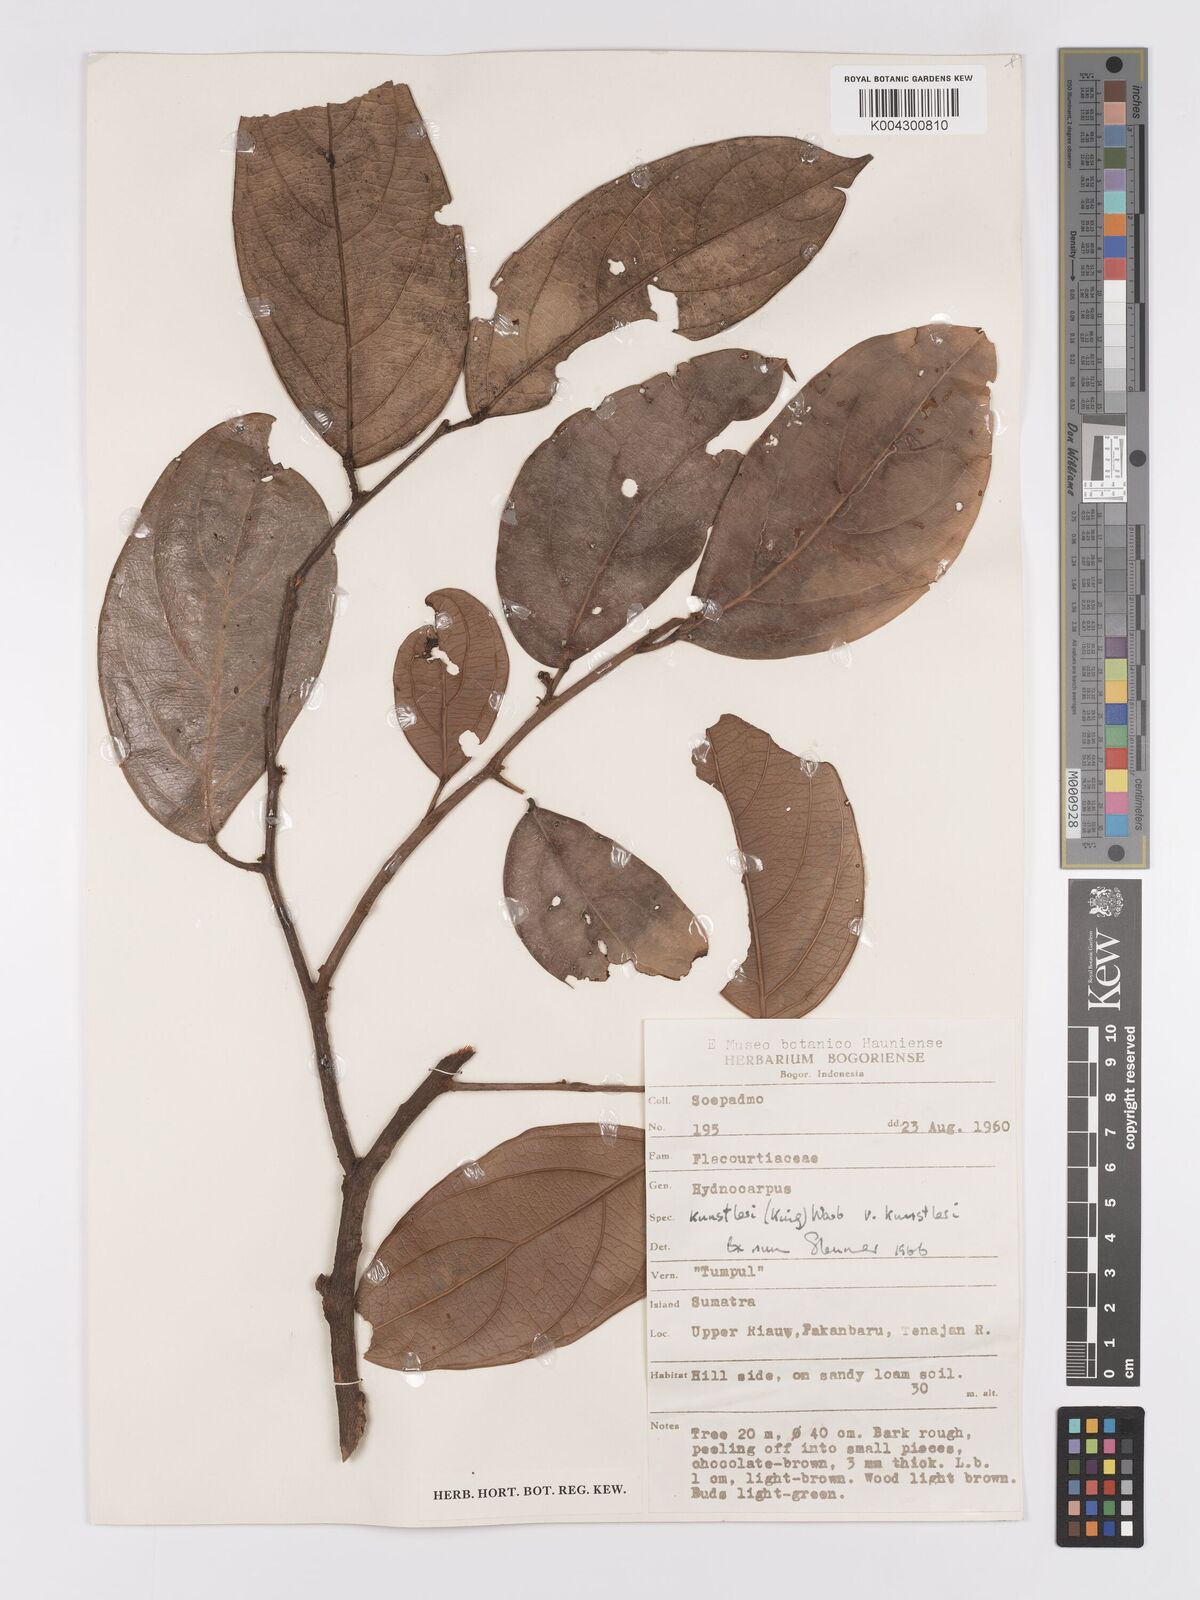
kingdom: Plantae
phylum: Tracheophyta
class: Magnoliopsida
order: Malpighiales
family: Achariaceae
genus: Hydnocarpus
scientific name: Hydnocarpus kunstleri
